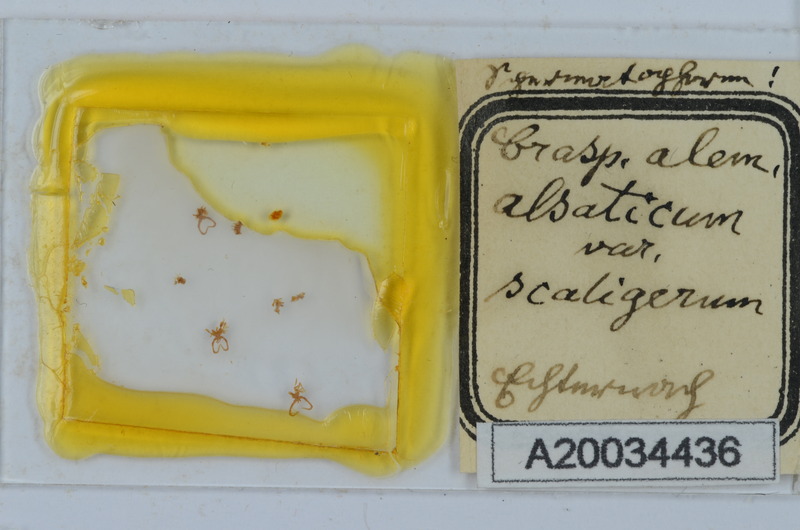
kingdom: Animalia
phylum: Arthropoda
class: Diplopoda
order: Chordeumatida
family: Craspedosomatidae
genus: Craspedosoma
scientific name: Craspedosoma rawlinsii
